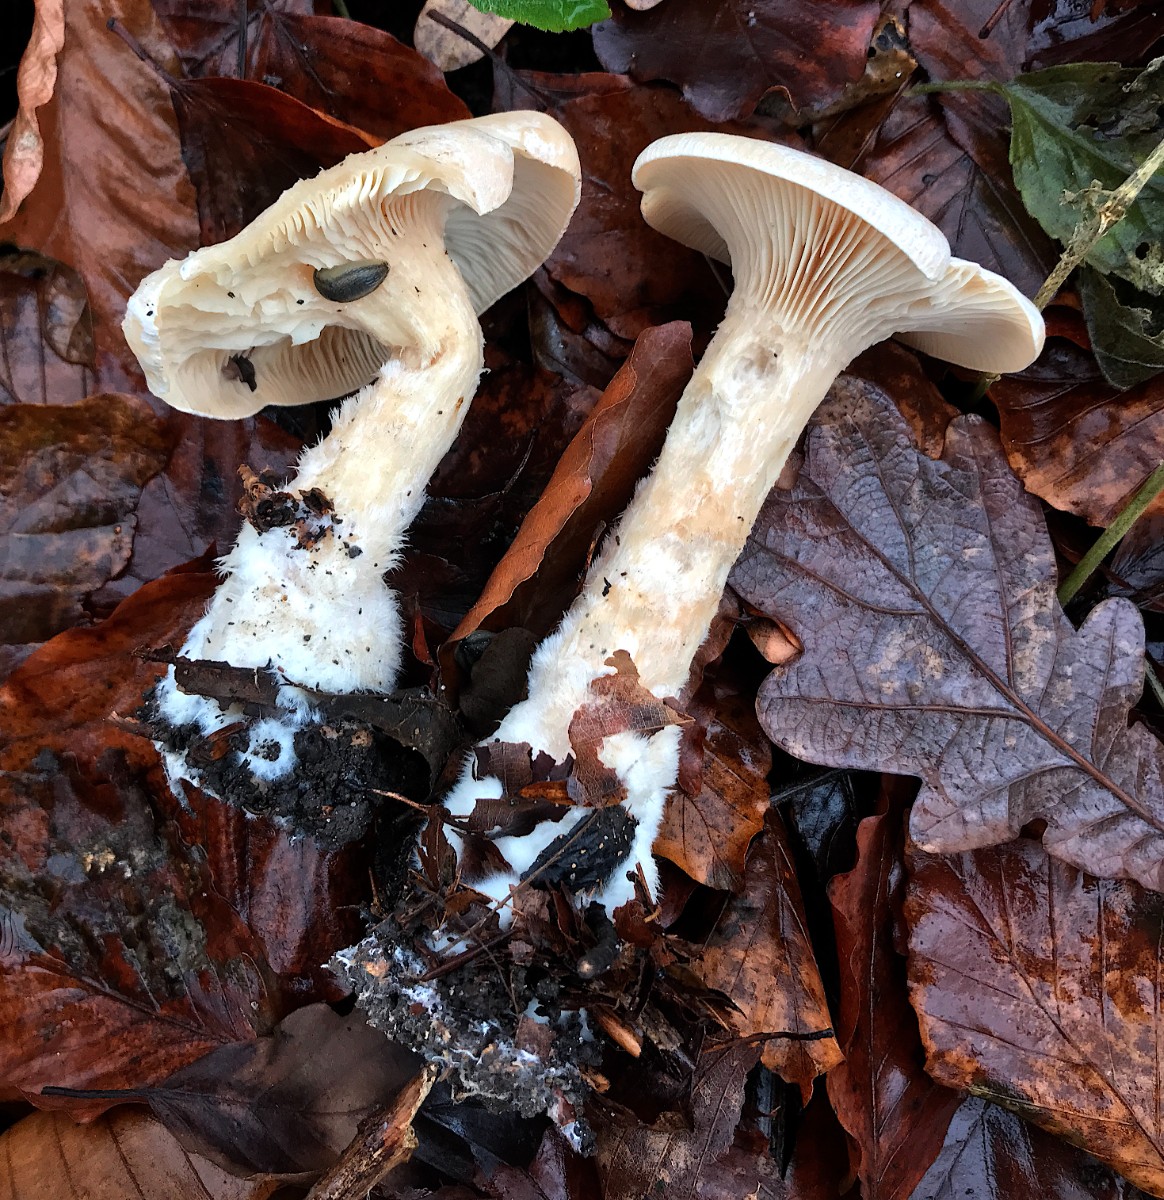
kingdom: Fungi
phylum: Basidiomycota
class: Agaricomycetes
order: Agaricales
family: Tricholomataceae
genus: Clitocybe
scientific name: Clitocybe nebularis
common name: tåge-tragthat
